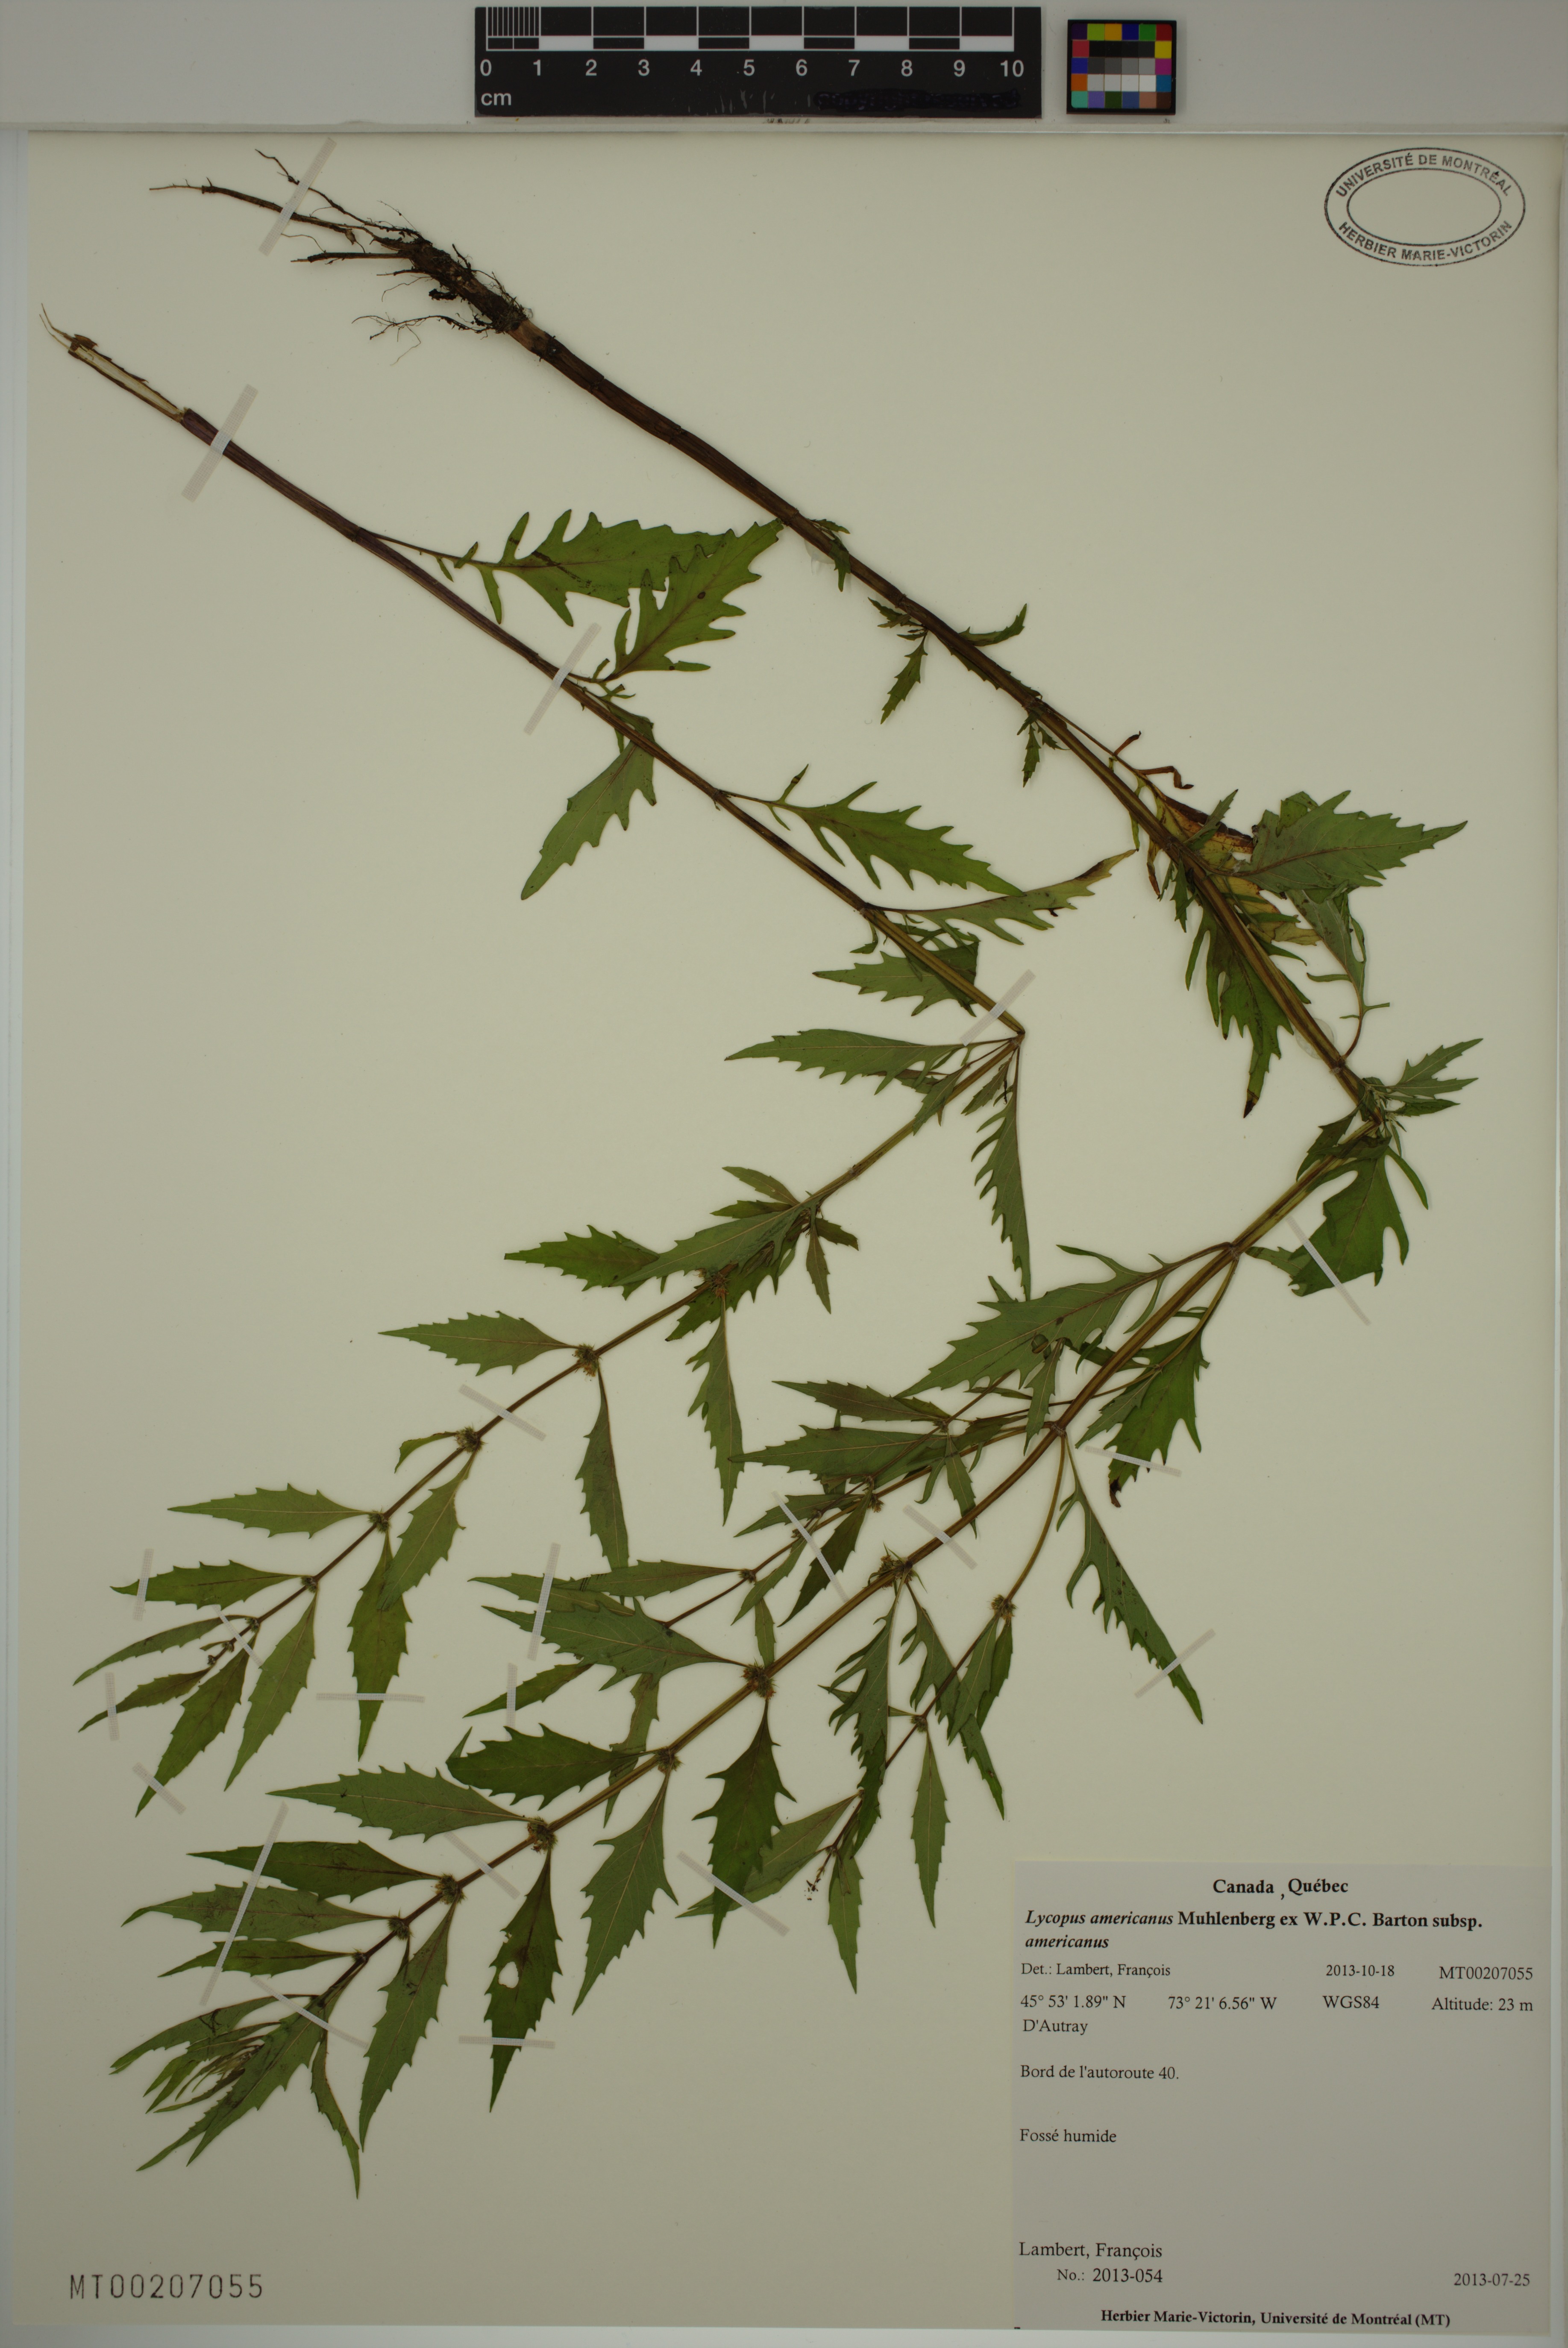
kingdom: Plantae
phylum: Tracheophyta
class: Magnoliopsida
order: Lamiales
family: Lamiaceae
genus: Lycopus
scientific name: Lycopus americanus
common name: American bugleweed
